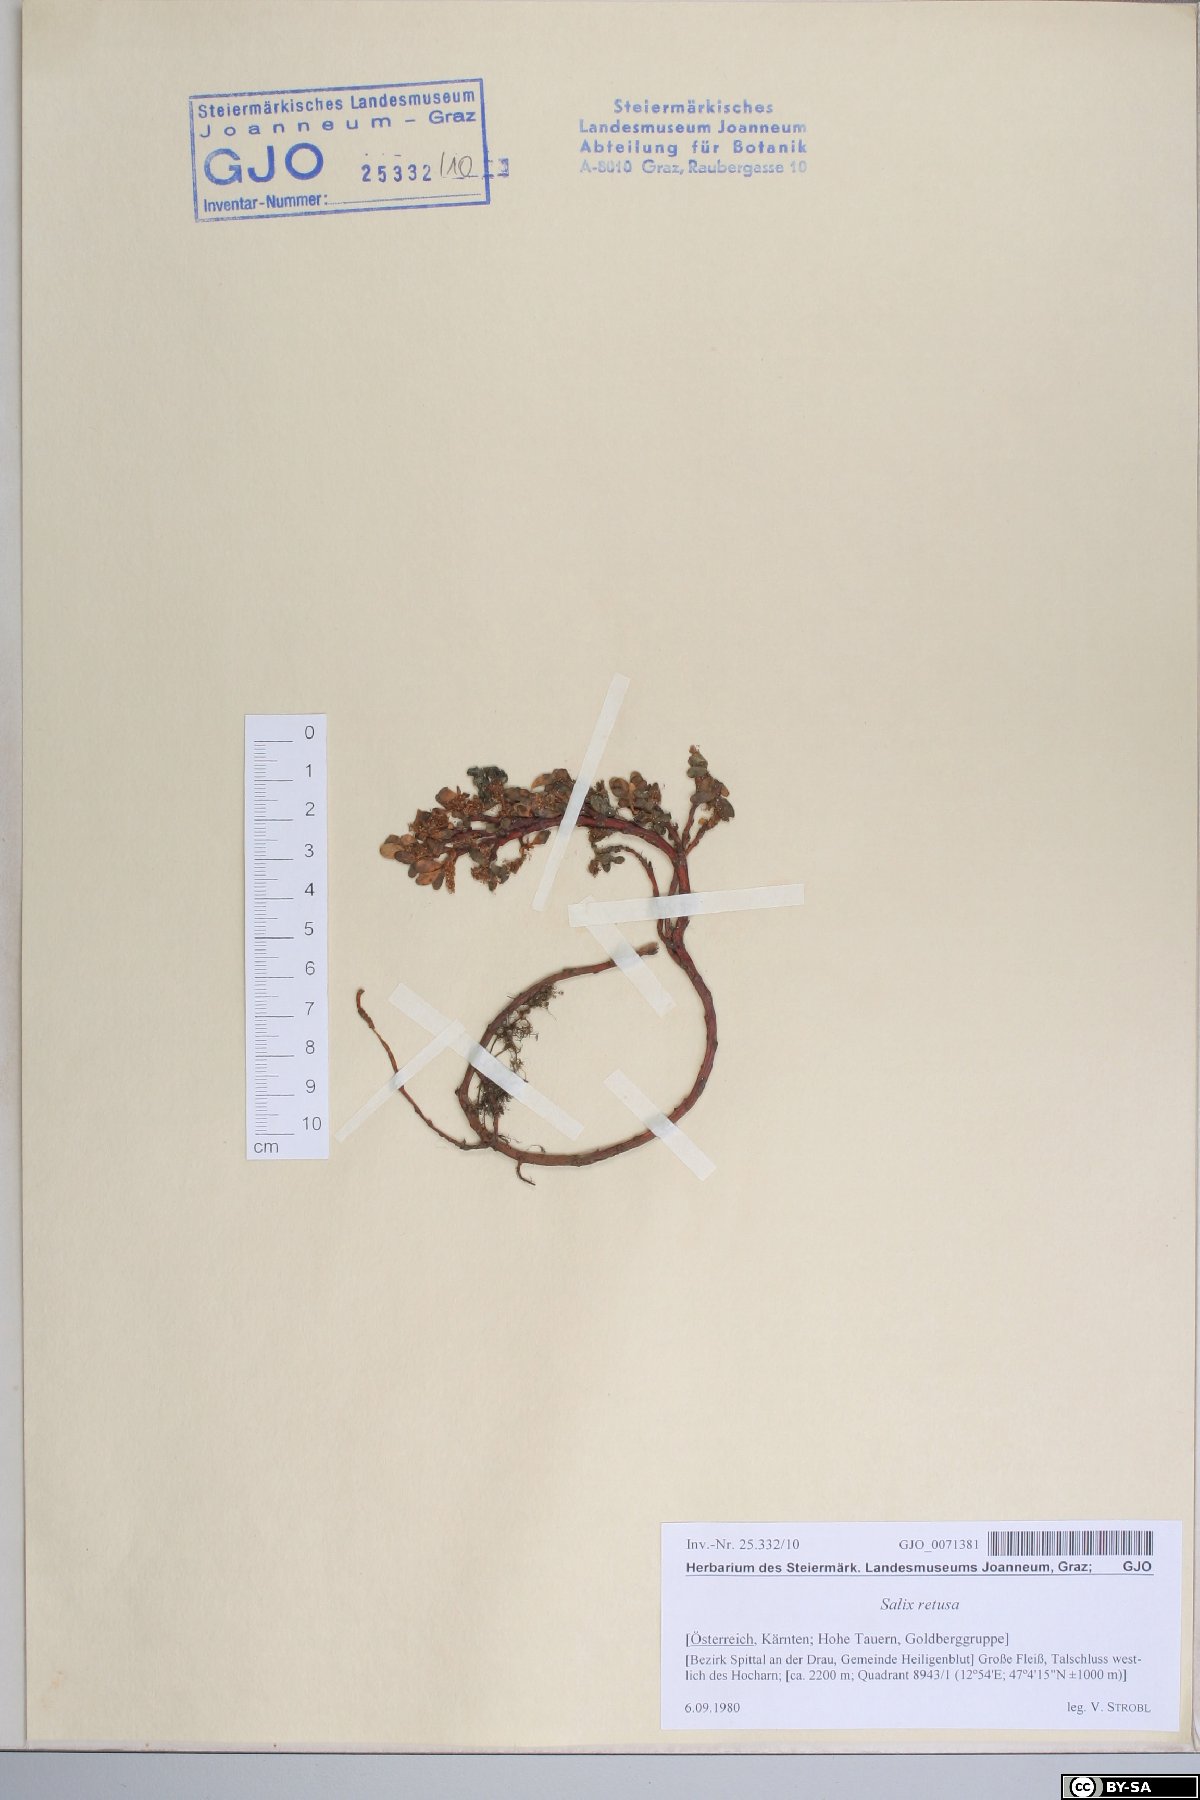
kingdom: Plantae
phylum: Tracheophyta
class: Magnoliopsida
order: Malpighiales
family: Salicaceae
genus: Salix
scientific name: Salix retusa
